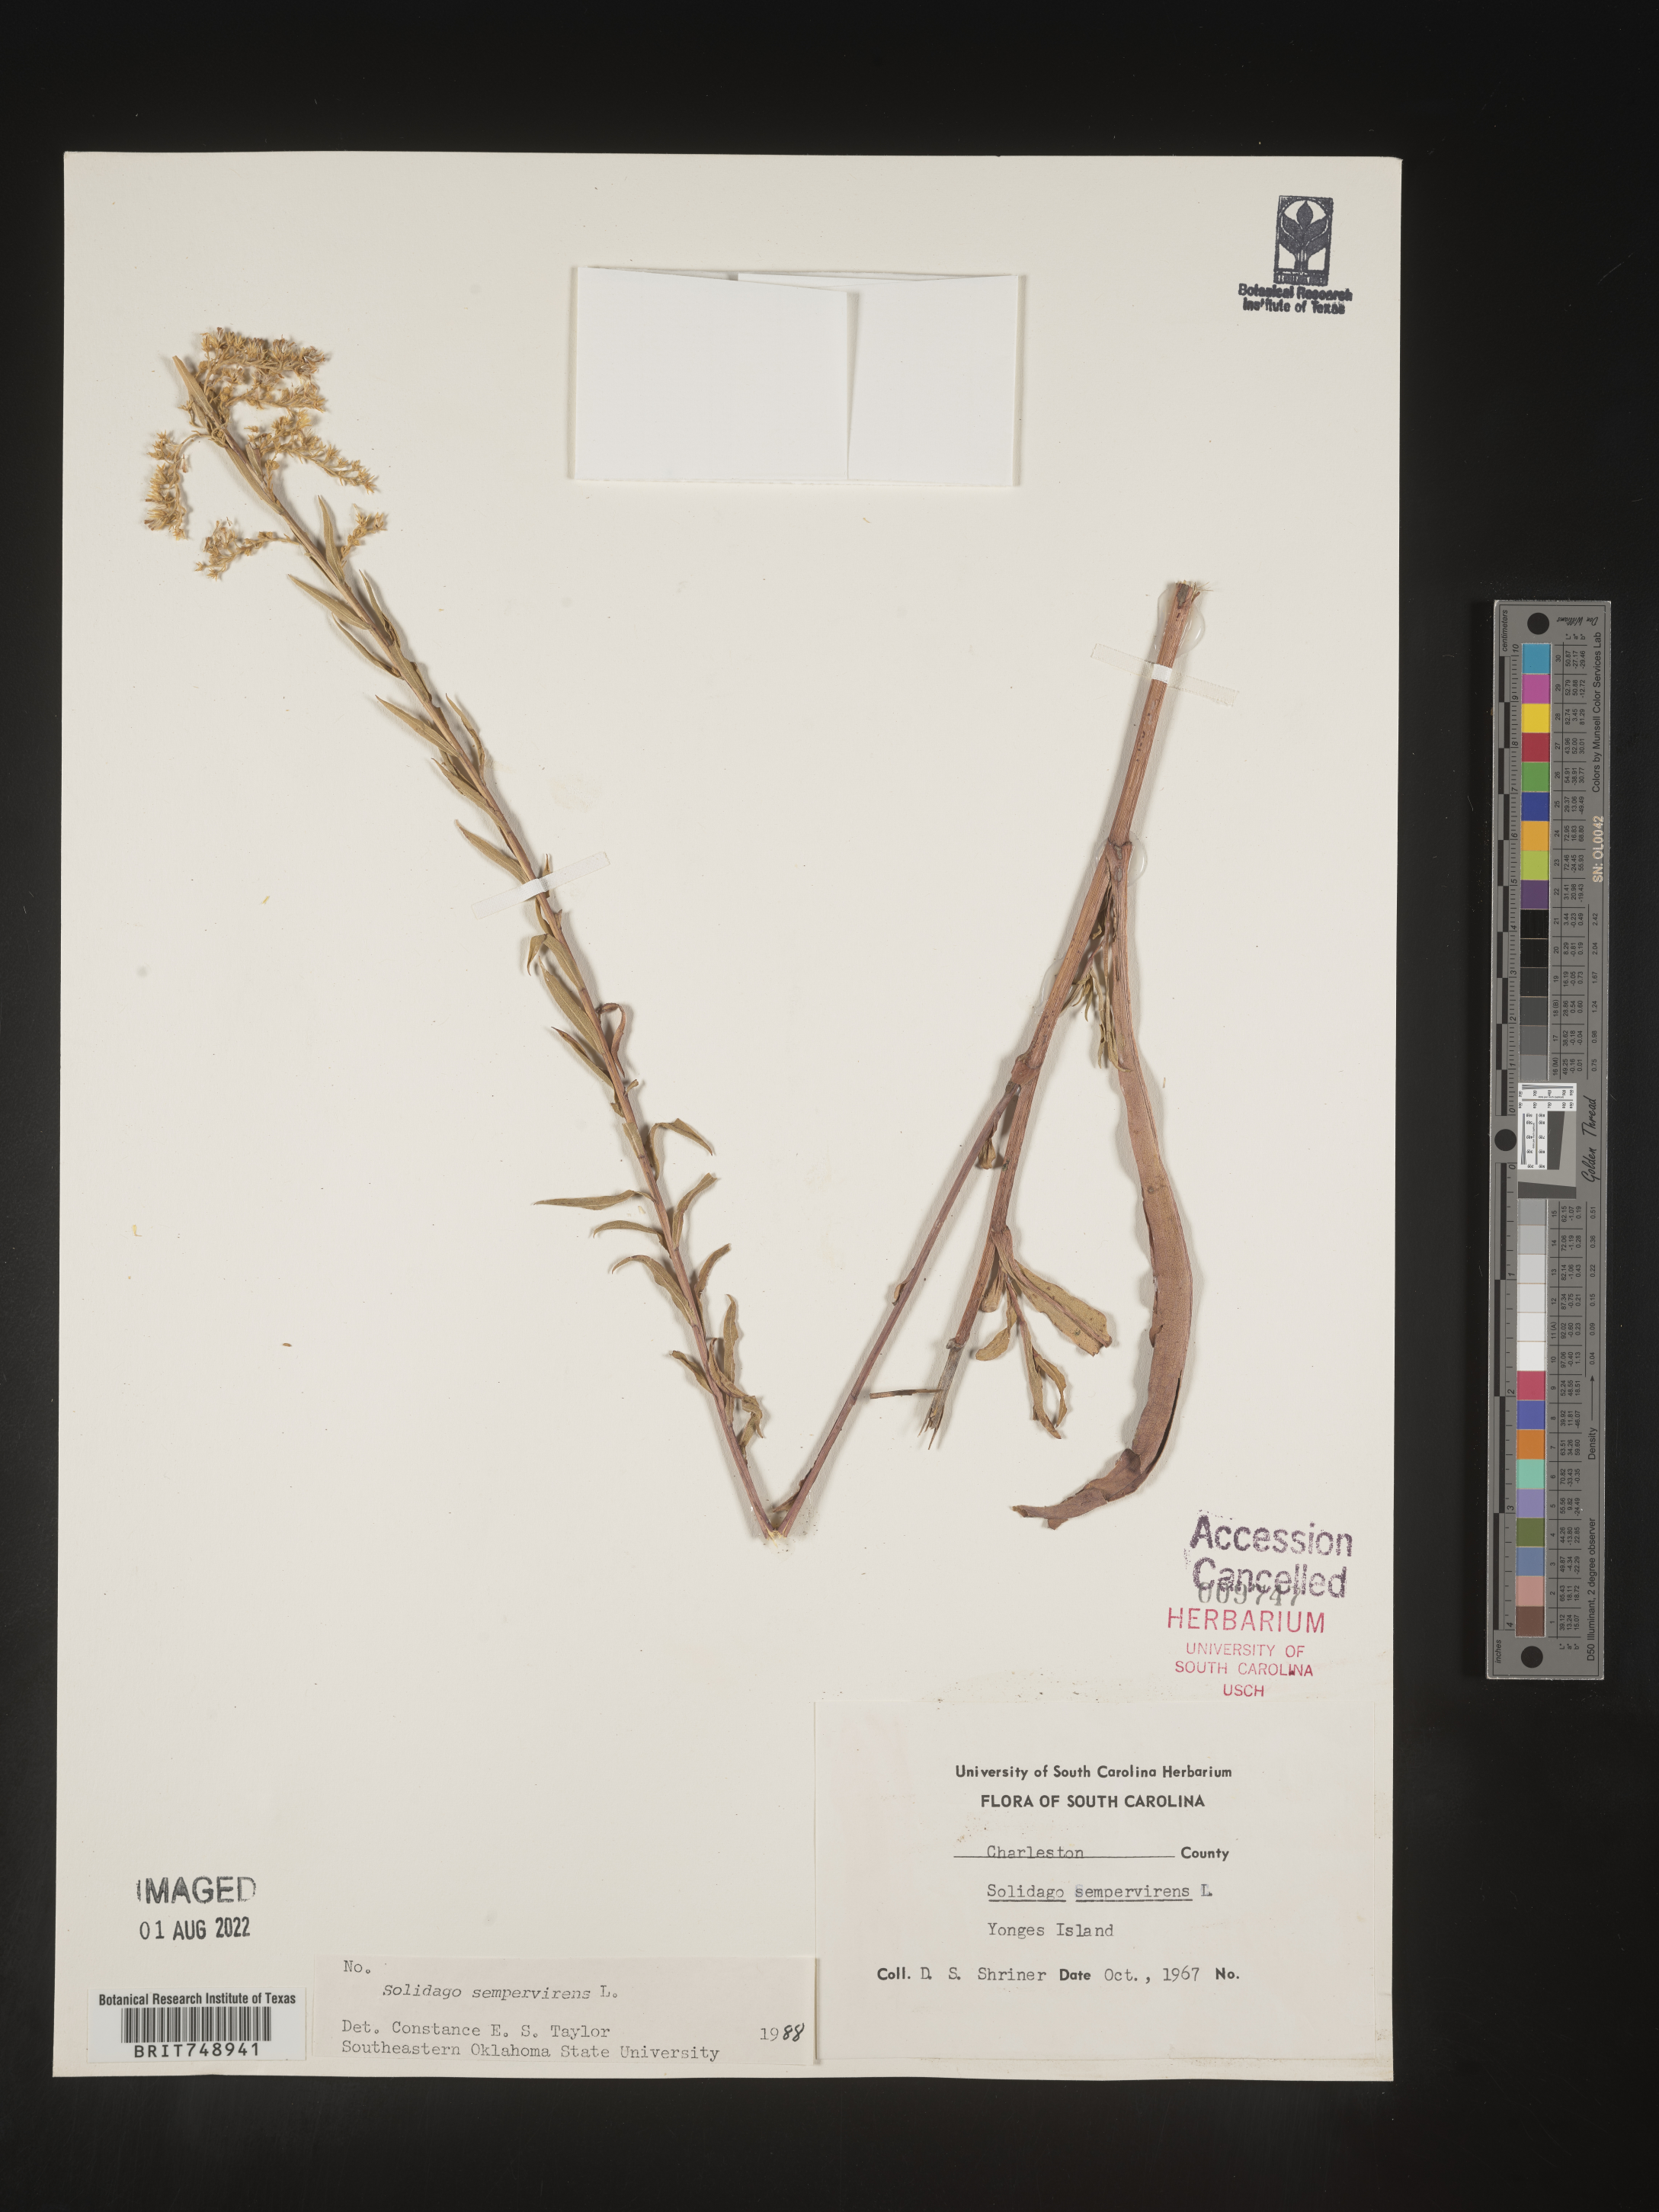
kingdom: Plantae
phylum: Tracheophyta
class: Magnoliopsida
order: Asterales
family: Asteraceae
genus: Solidago
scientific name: Solidago sempervirens
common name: Salt-marsh goldenrod
